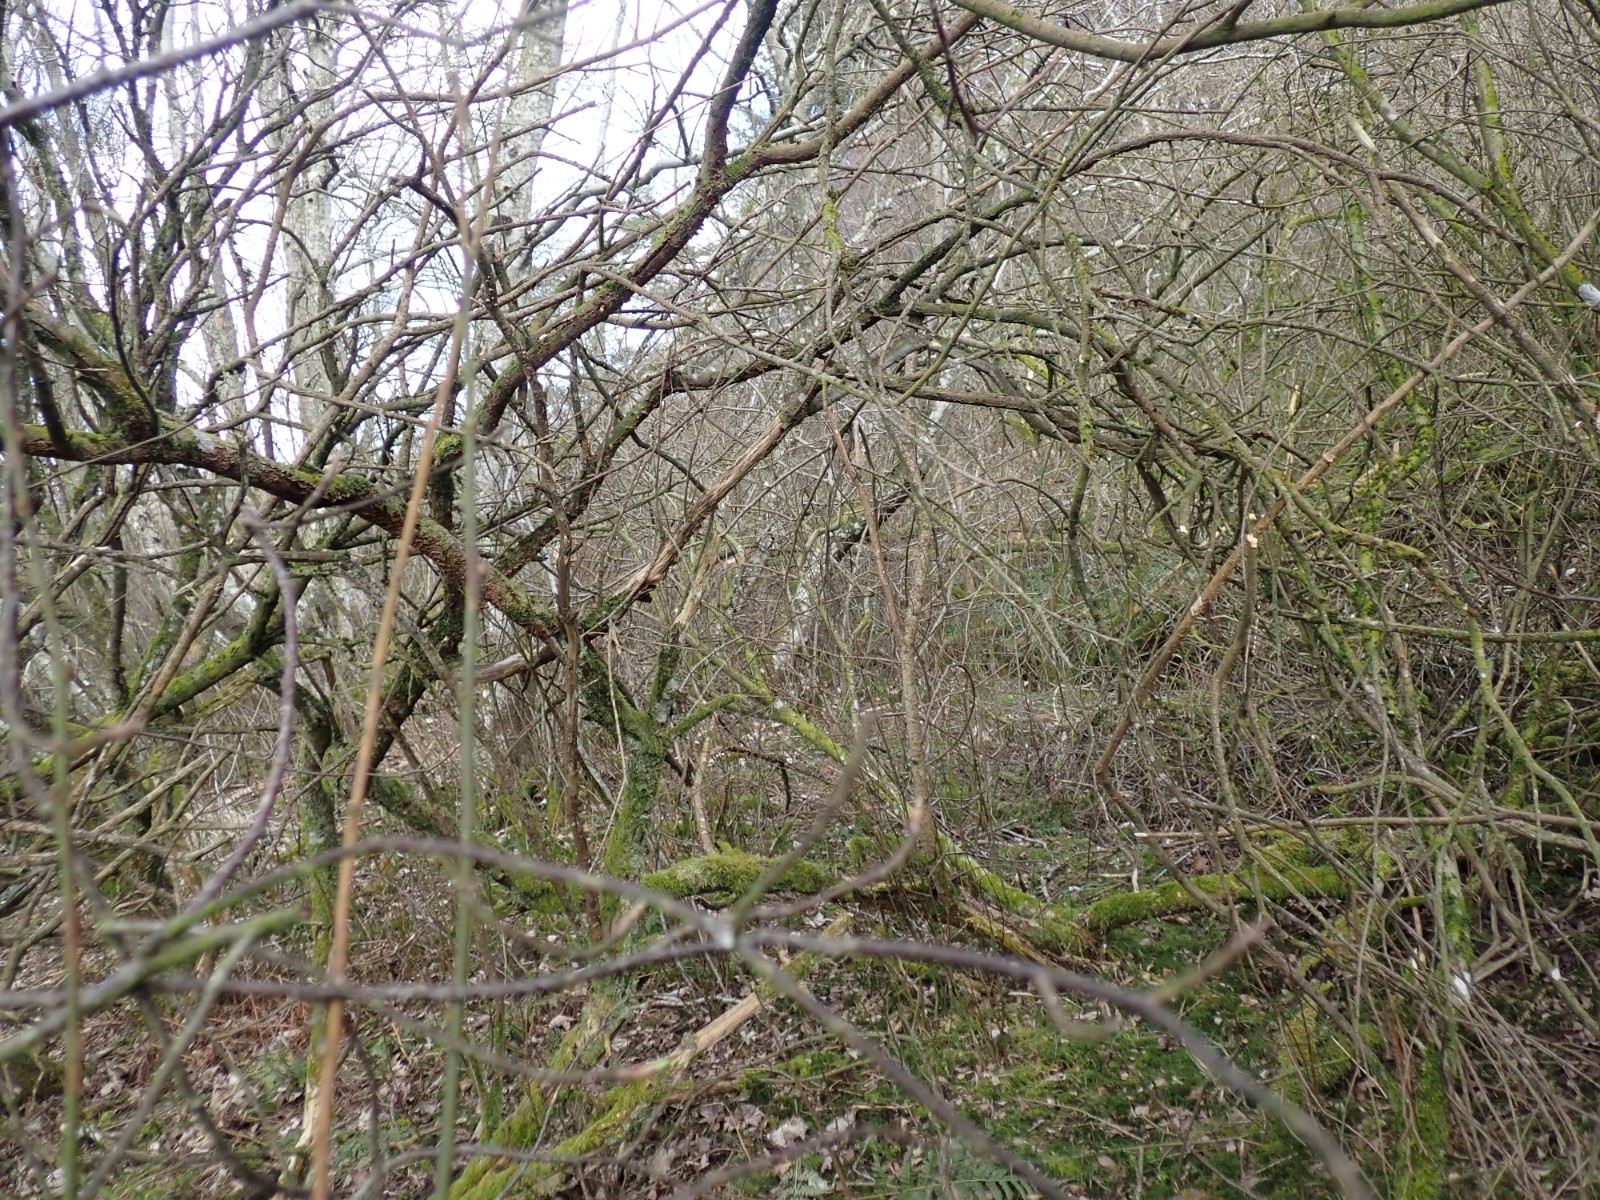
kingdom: Fungi
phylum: Basidiomycota
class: Agaricomycetes
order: Hymenochaetales
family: Hymenochaetaceae
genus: Hydnoporia
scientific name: Hydnoporia tabacina
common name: tobaksbrun ruslædersvamp
